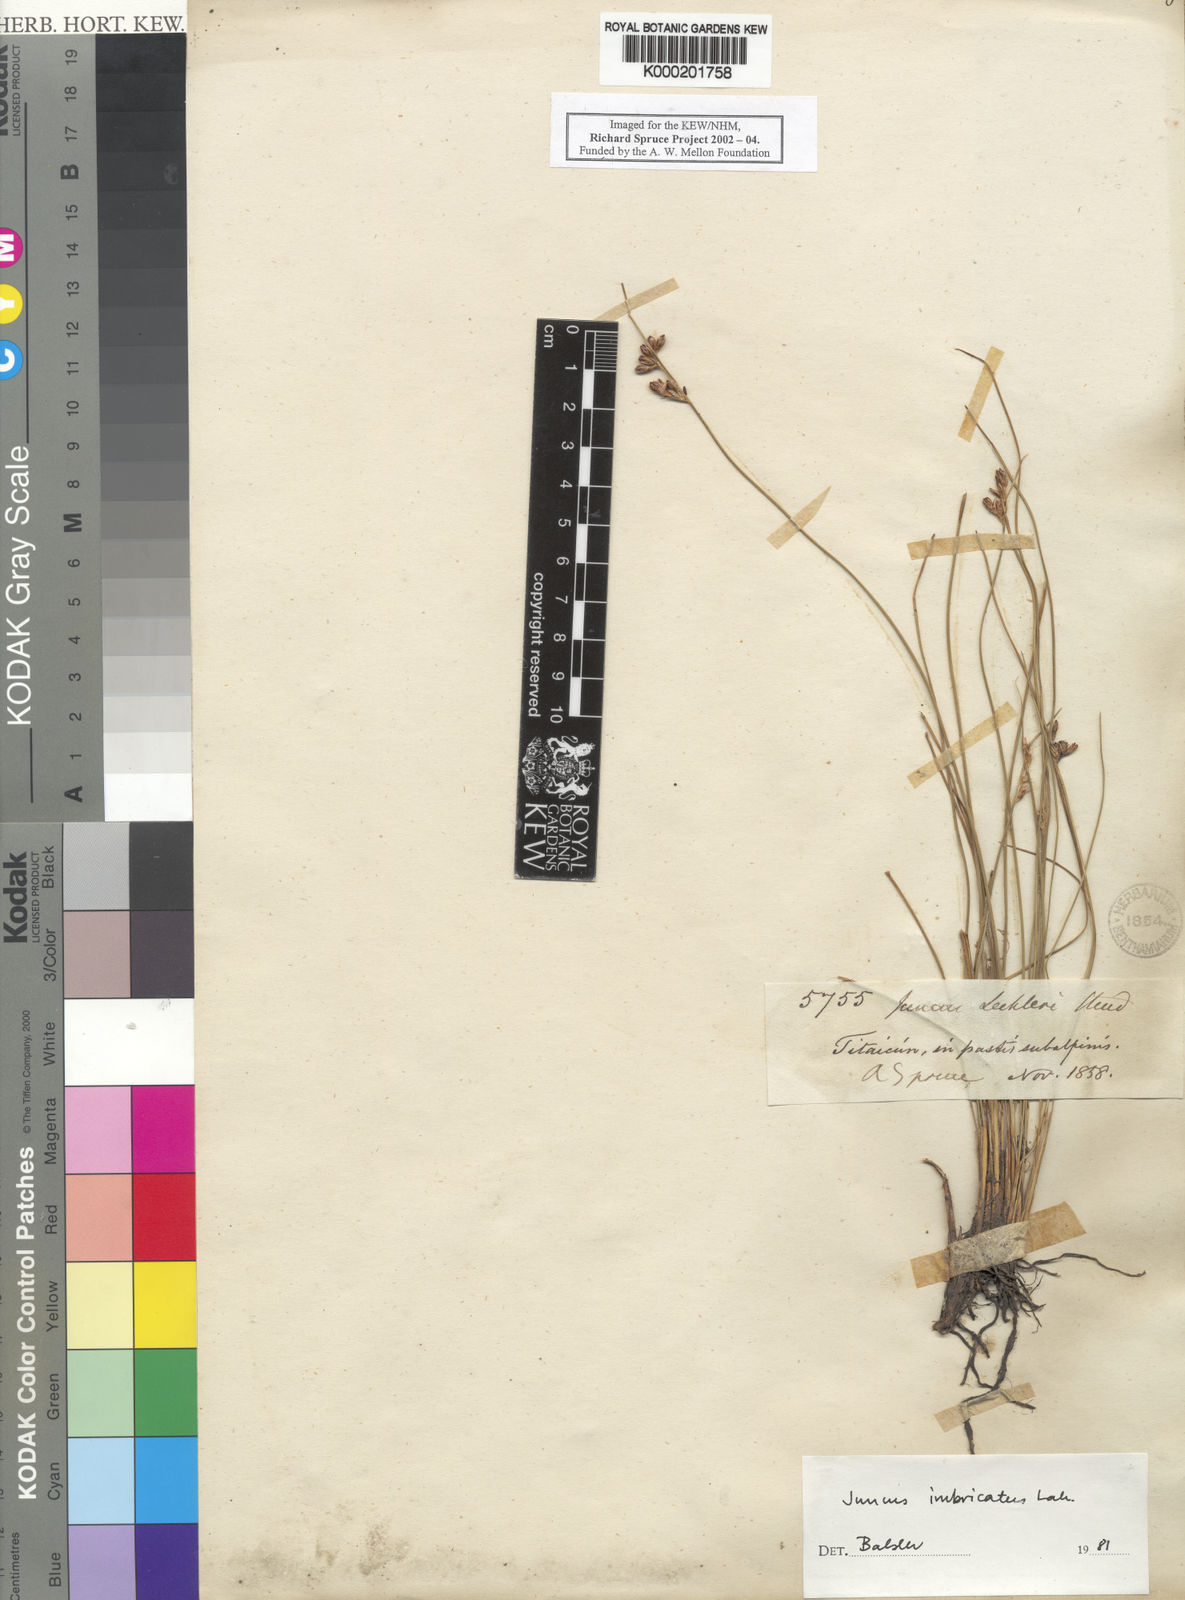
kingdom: Plantae
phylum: Tracheophyta
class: Liliopsida
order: Poales
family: Juncaceae
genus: Juncus
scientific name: Juncus imbricatus
